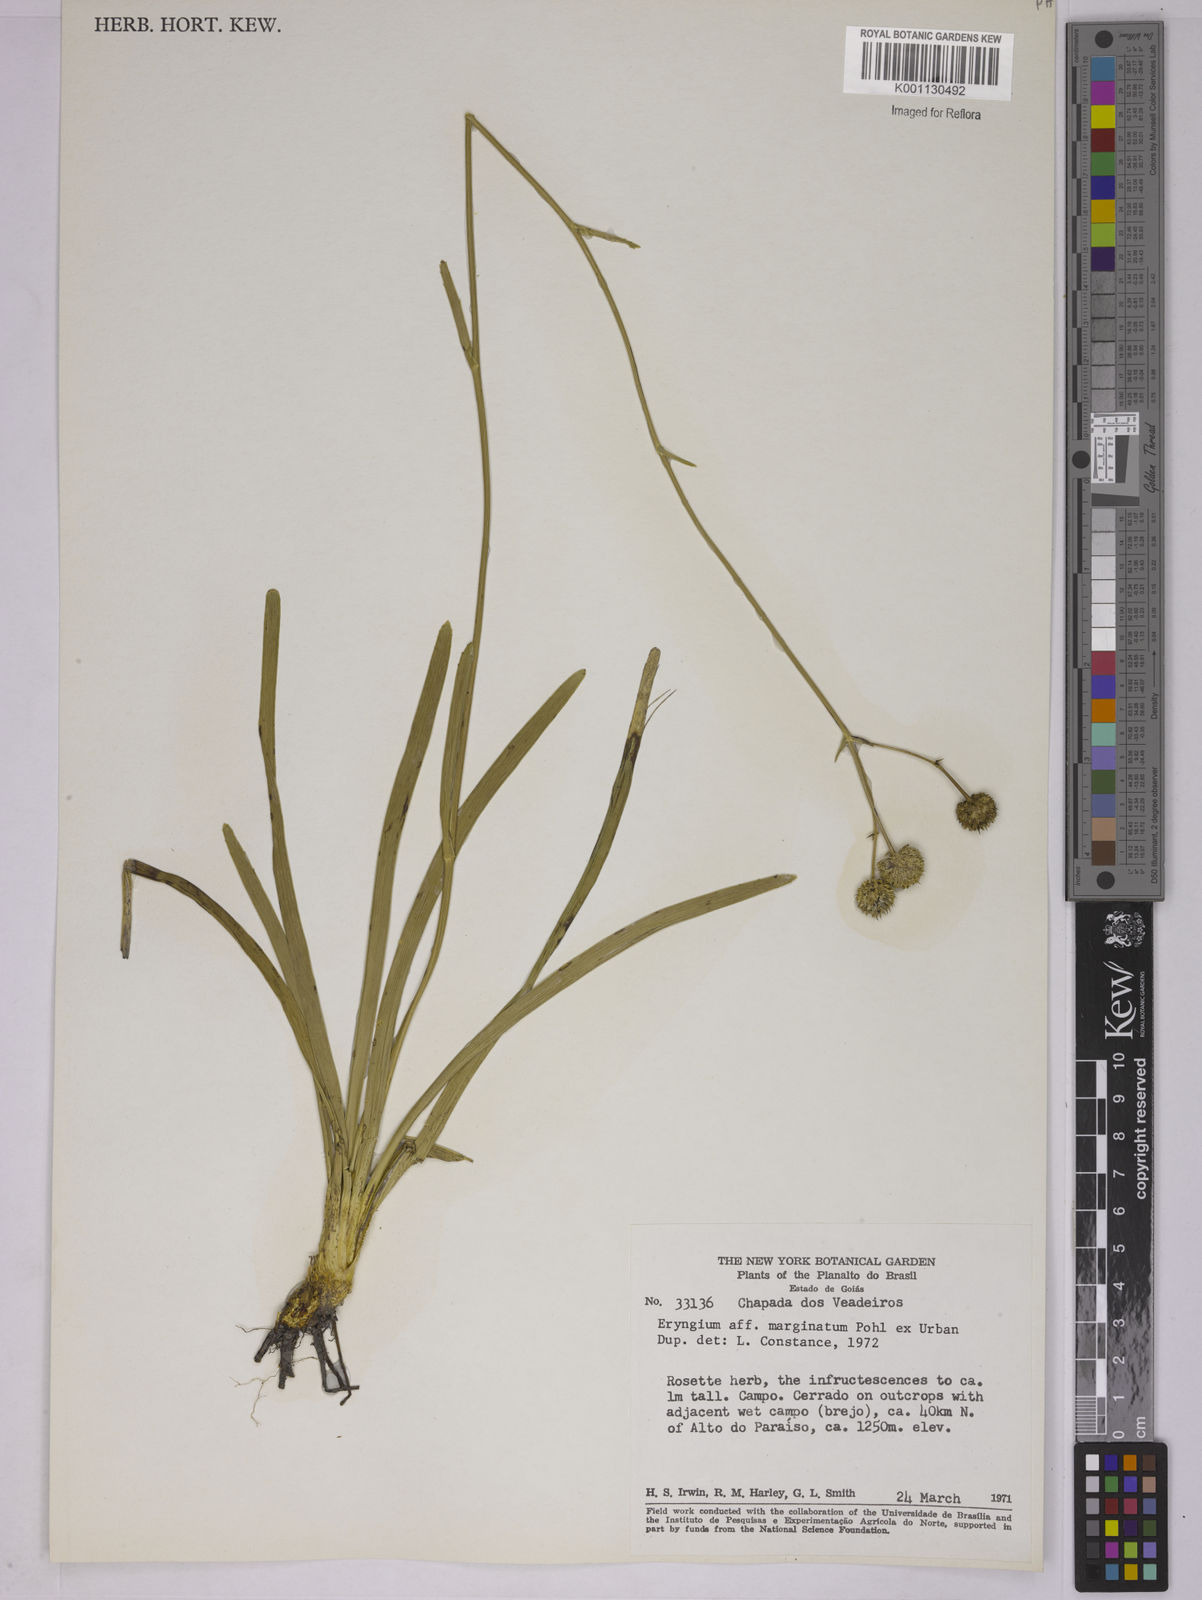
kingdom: Plantae
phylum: Tracheophyta
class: Magnoliopsida
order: Apiales
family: Apiaceae
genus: Eryngium
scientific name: Eryngium marginatum
